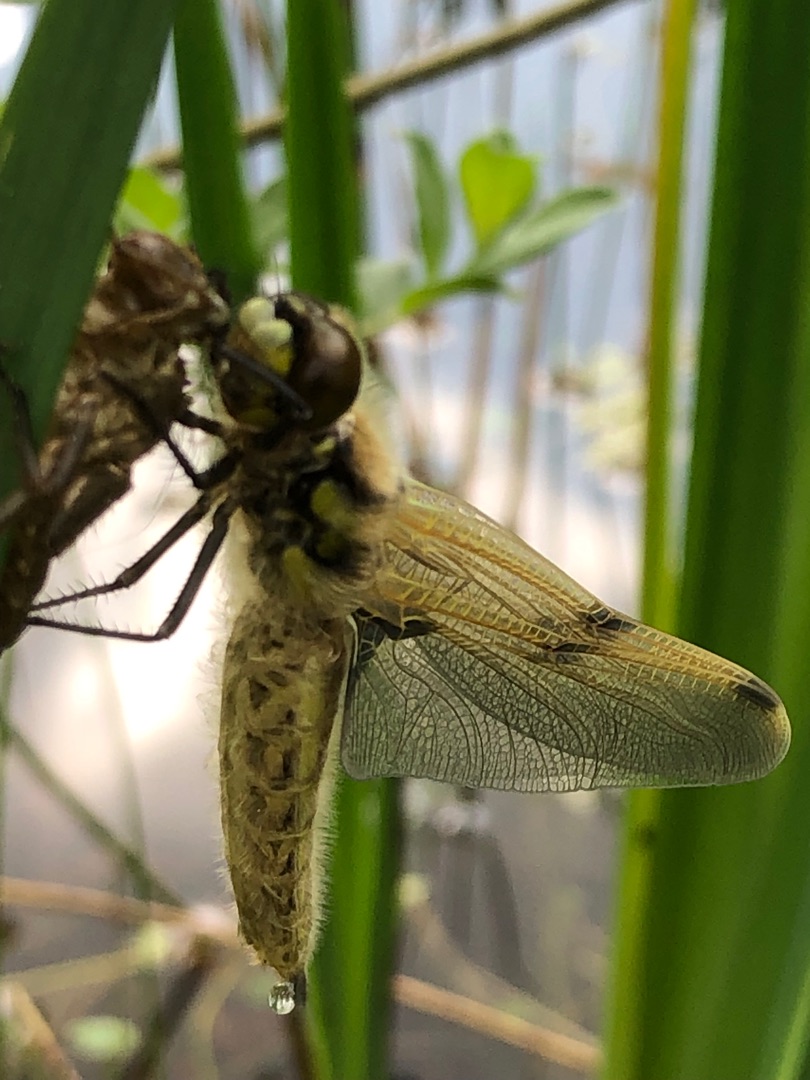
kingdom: Animalia
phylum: Arthropoda
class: Insecta
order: Odonata
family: Libellulidae
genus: Libellula
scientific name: Libellula quadrimaculata
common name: Fireplettet libel
